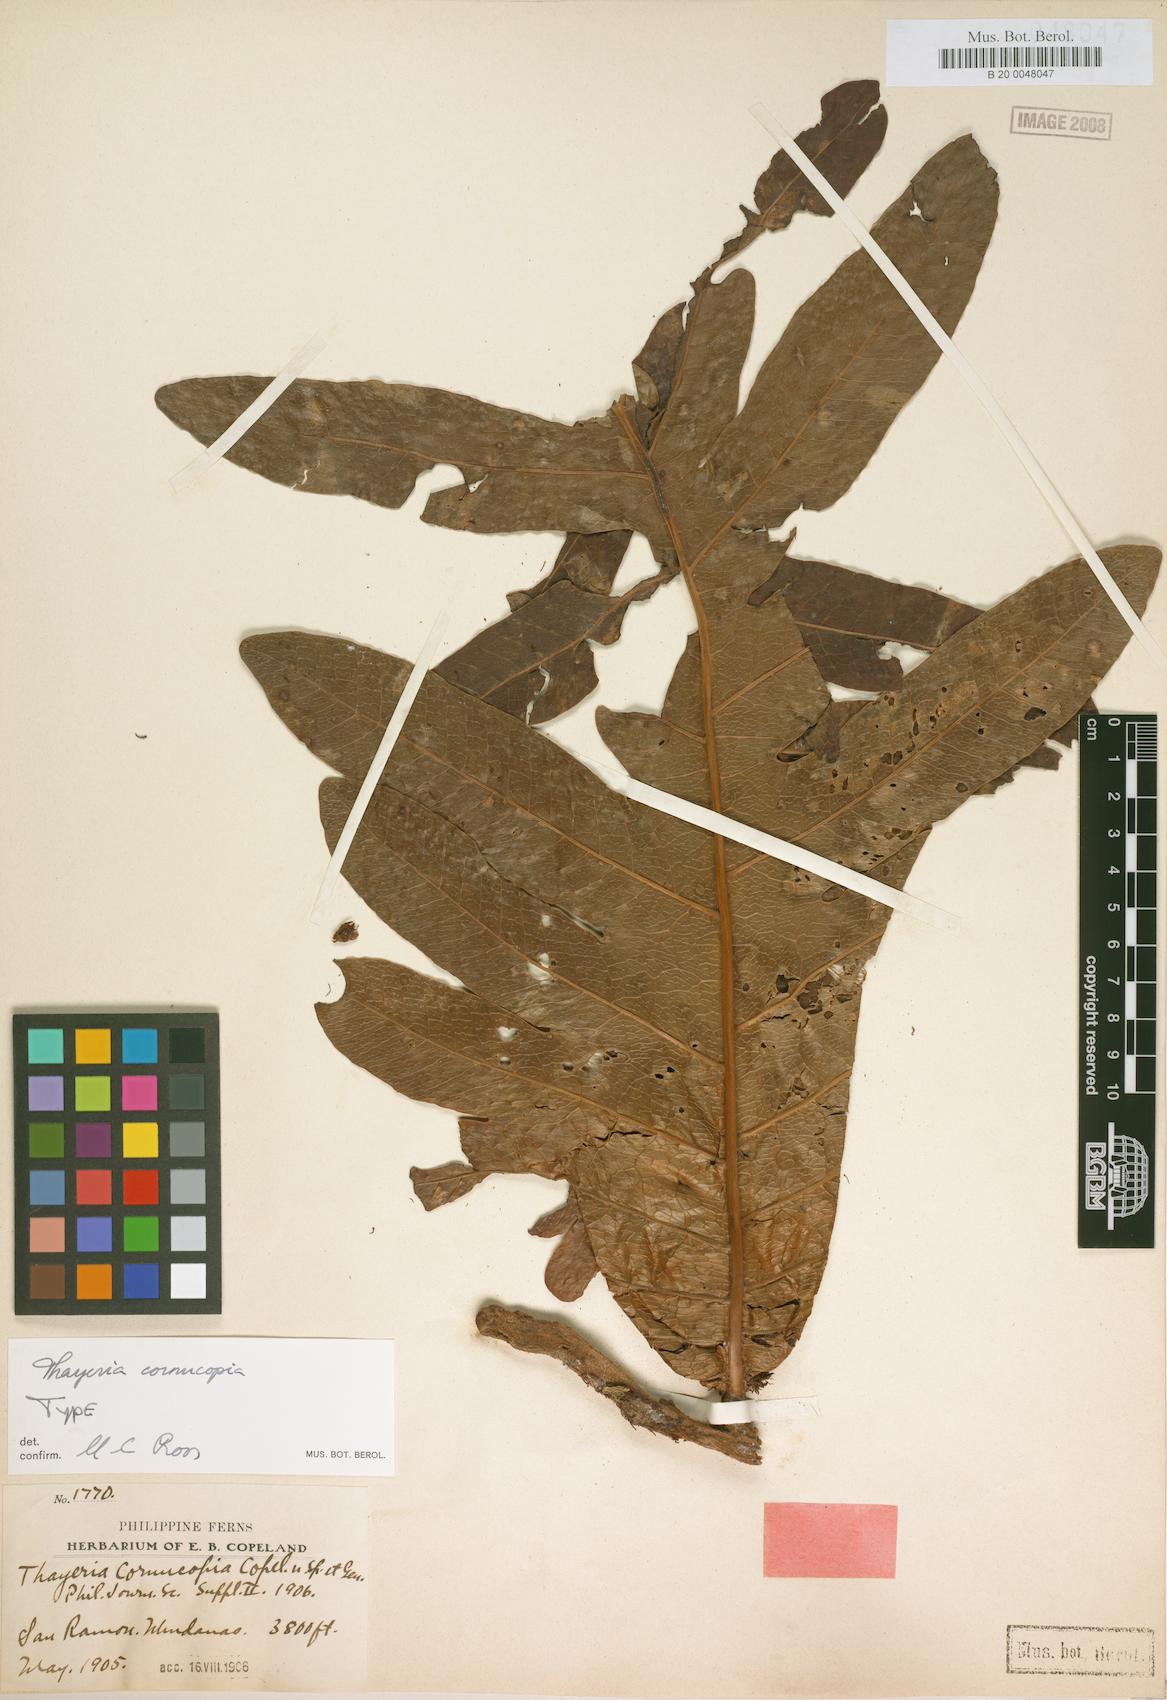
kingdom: Plantae
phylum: Tracheophyta
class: Polypodiopsida
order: Polypodiales
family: Polypodiaceae
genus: Drynaria
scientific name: Drynaria cornucopia
